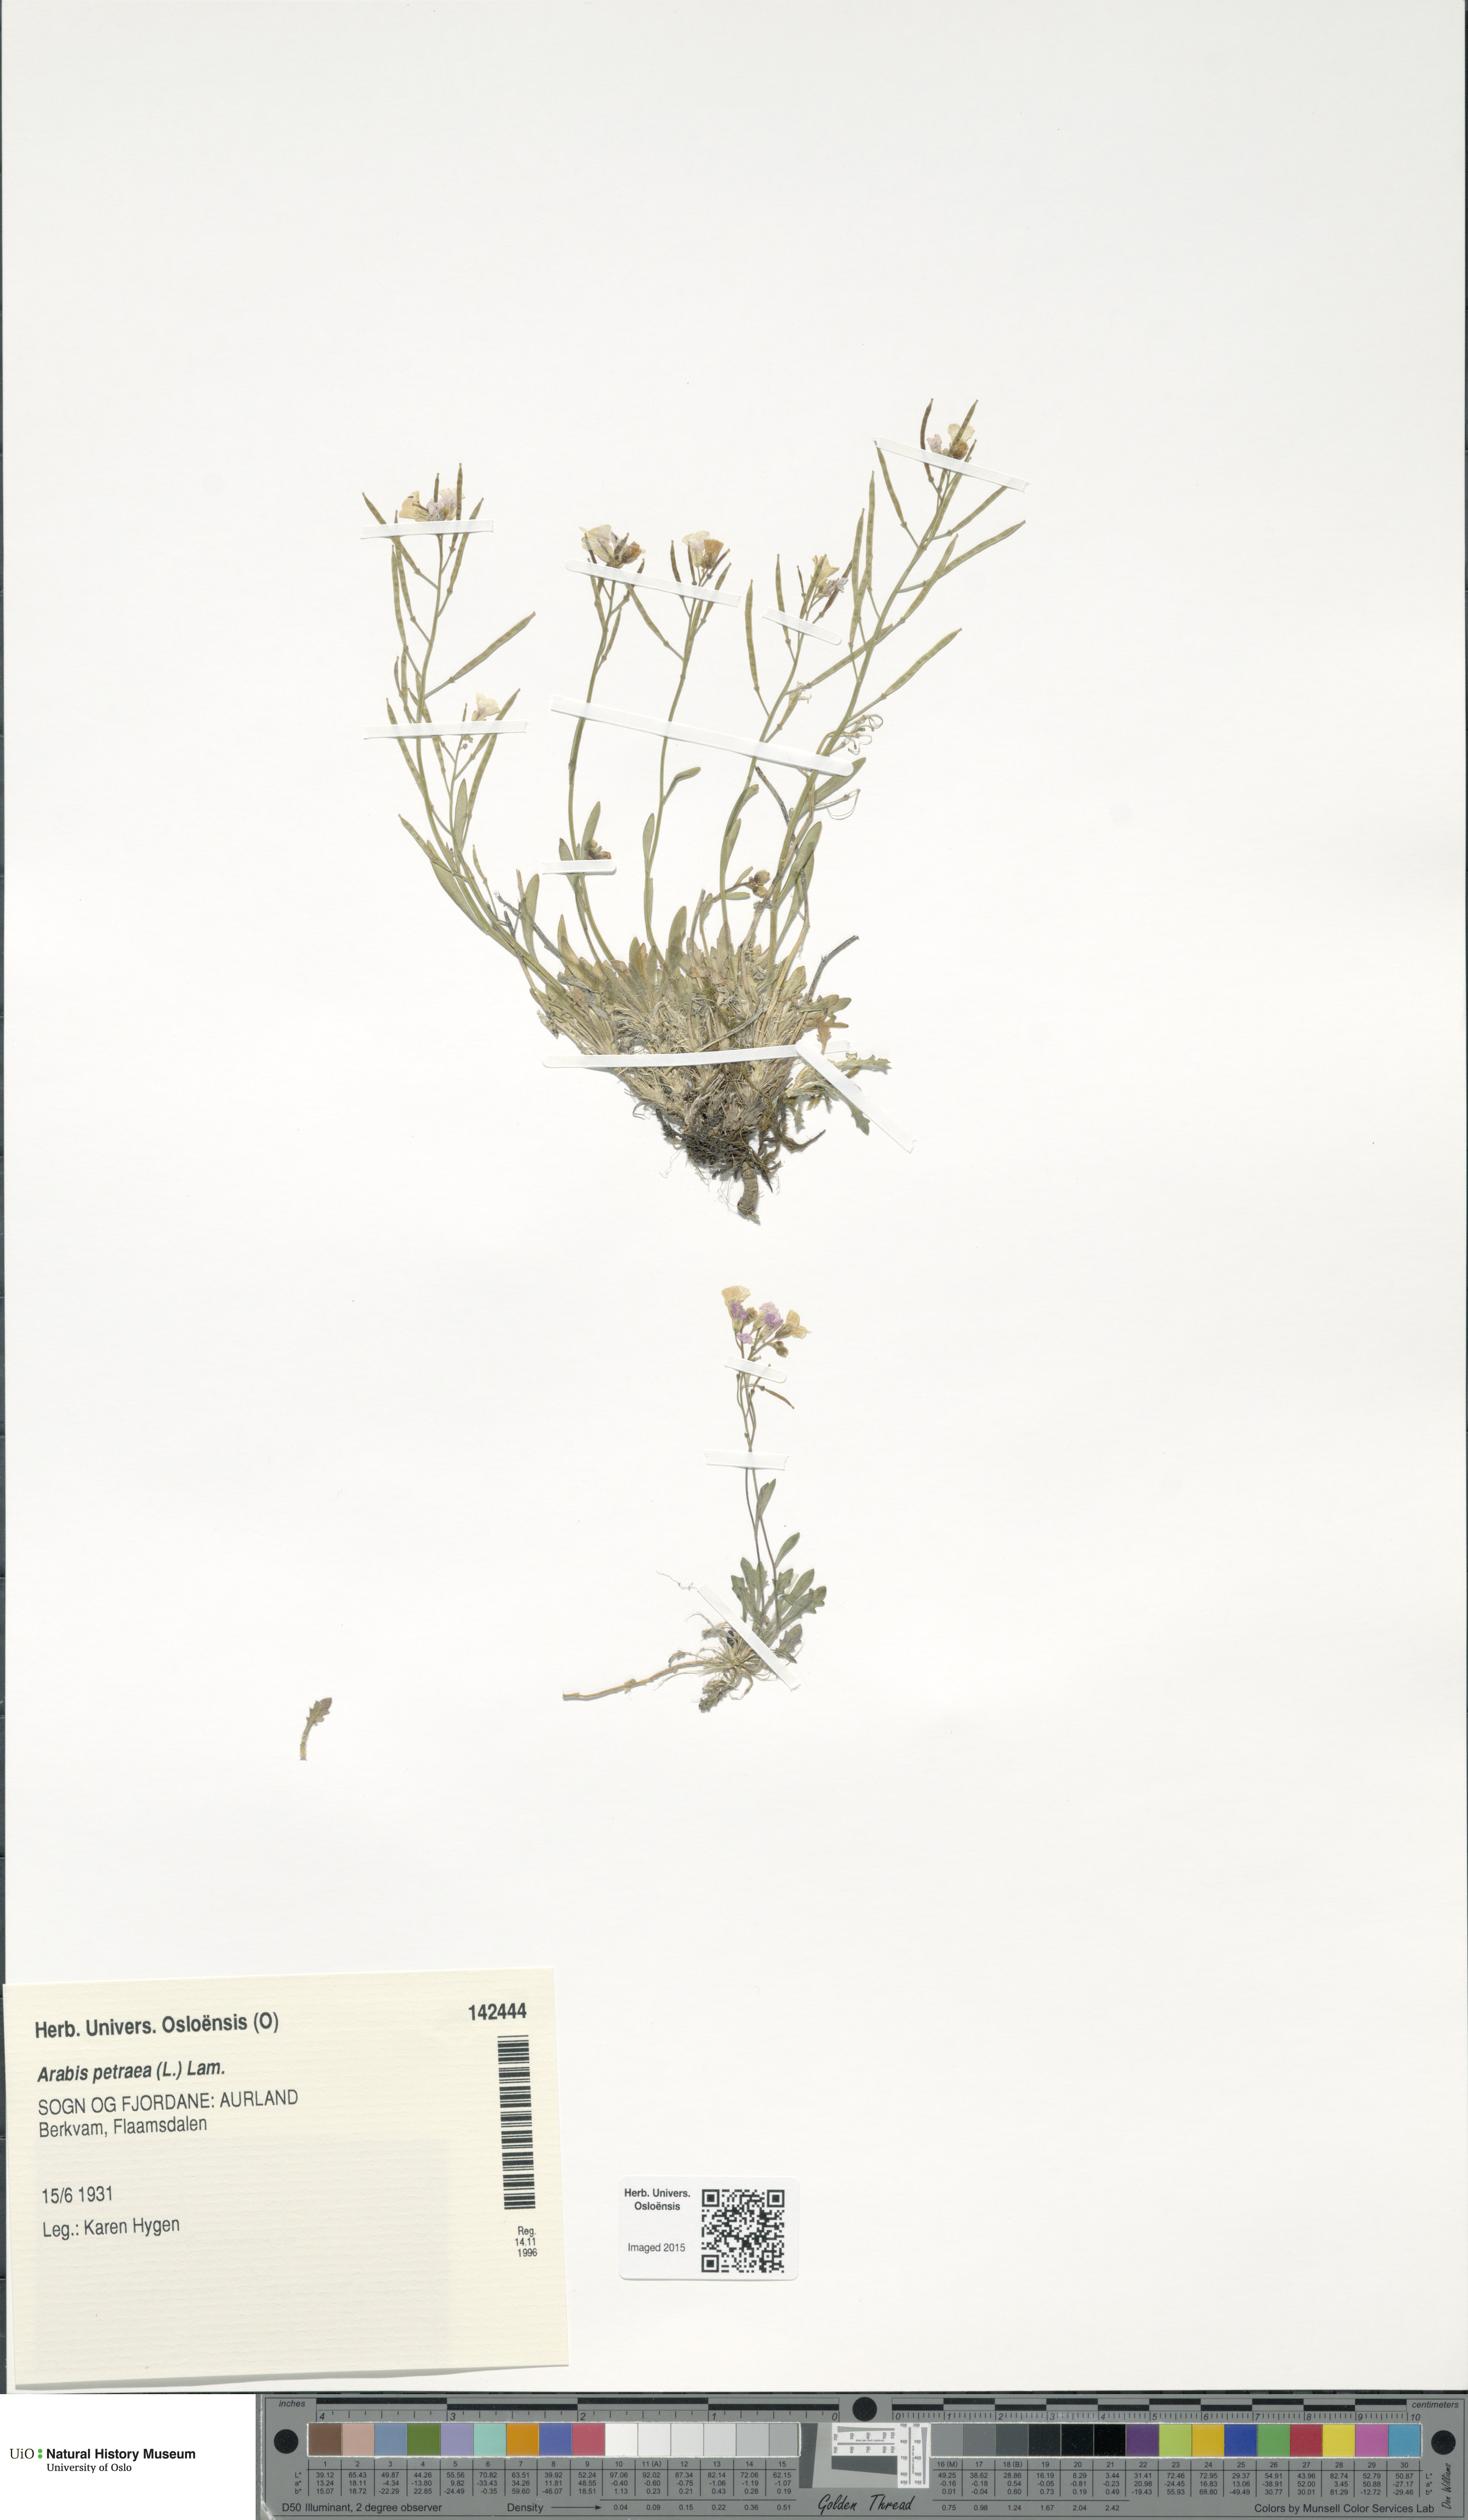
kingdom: Plantae
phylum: Tracheophyta
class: Magnoliopsida
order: Brassicales
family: Brassicaceae
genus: Arabidopsis
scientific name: Arabidopsis petraea
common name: Northern rock-cress
